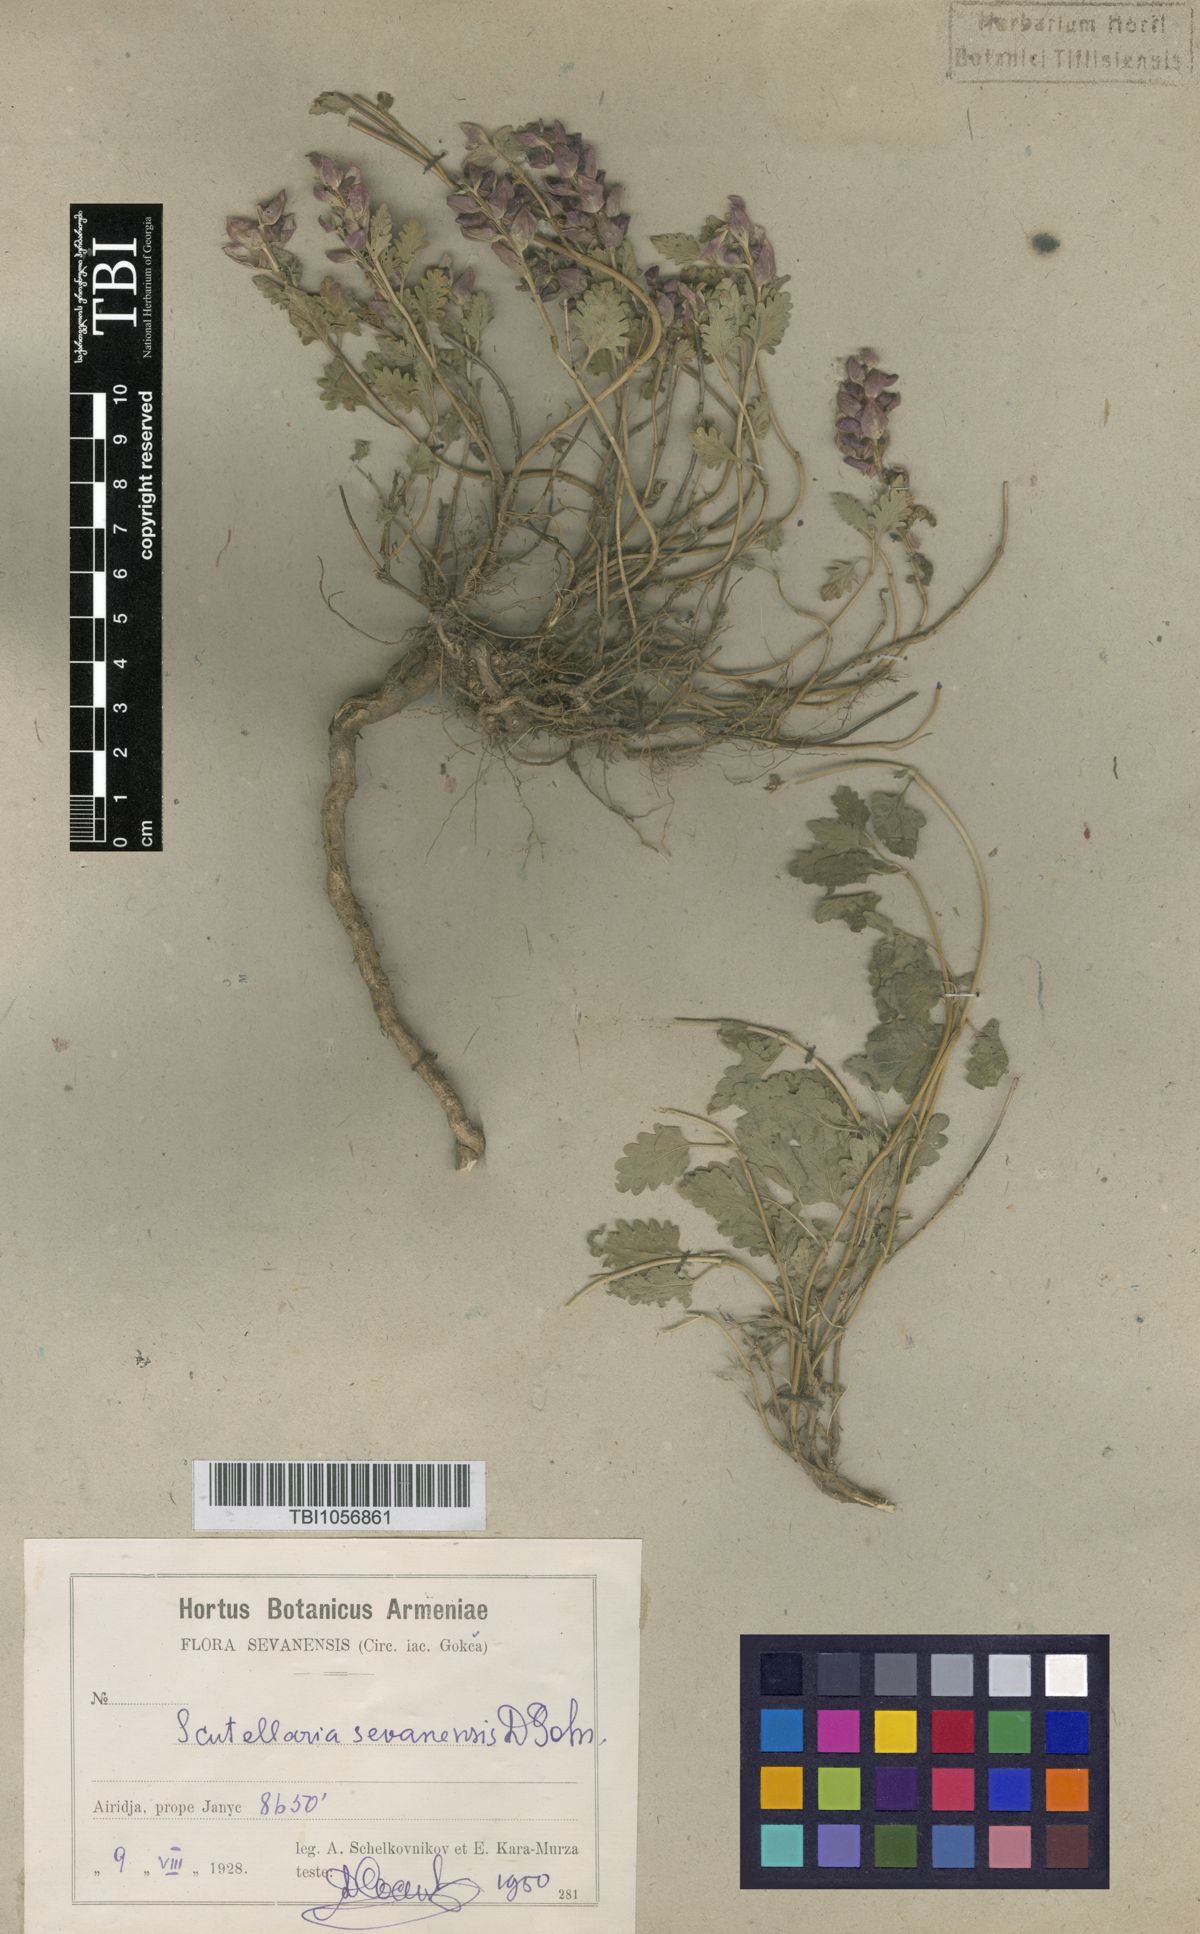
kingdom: Plantae
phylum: Tracheophyta
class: Magnoliopsida
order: Lamiales
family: Lamiaceae
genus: Scutellaria
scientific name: Scutellaria sevanensis
